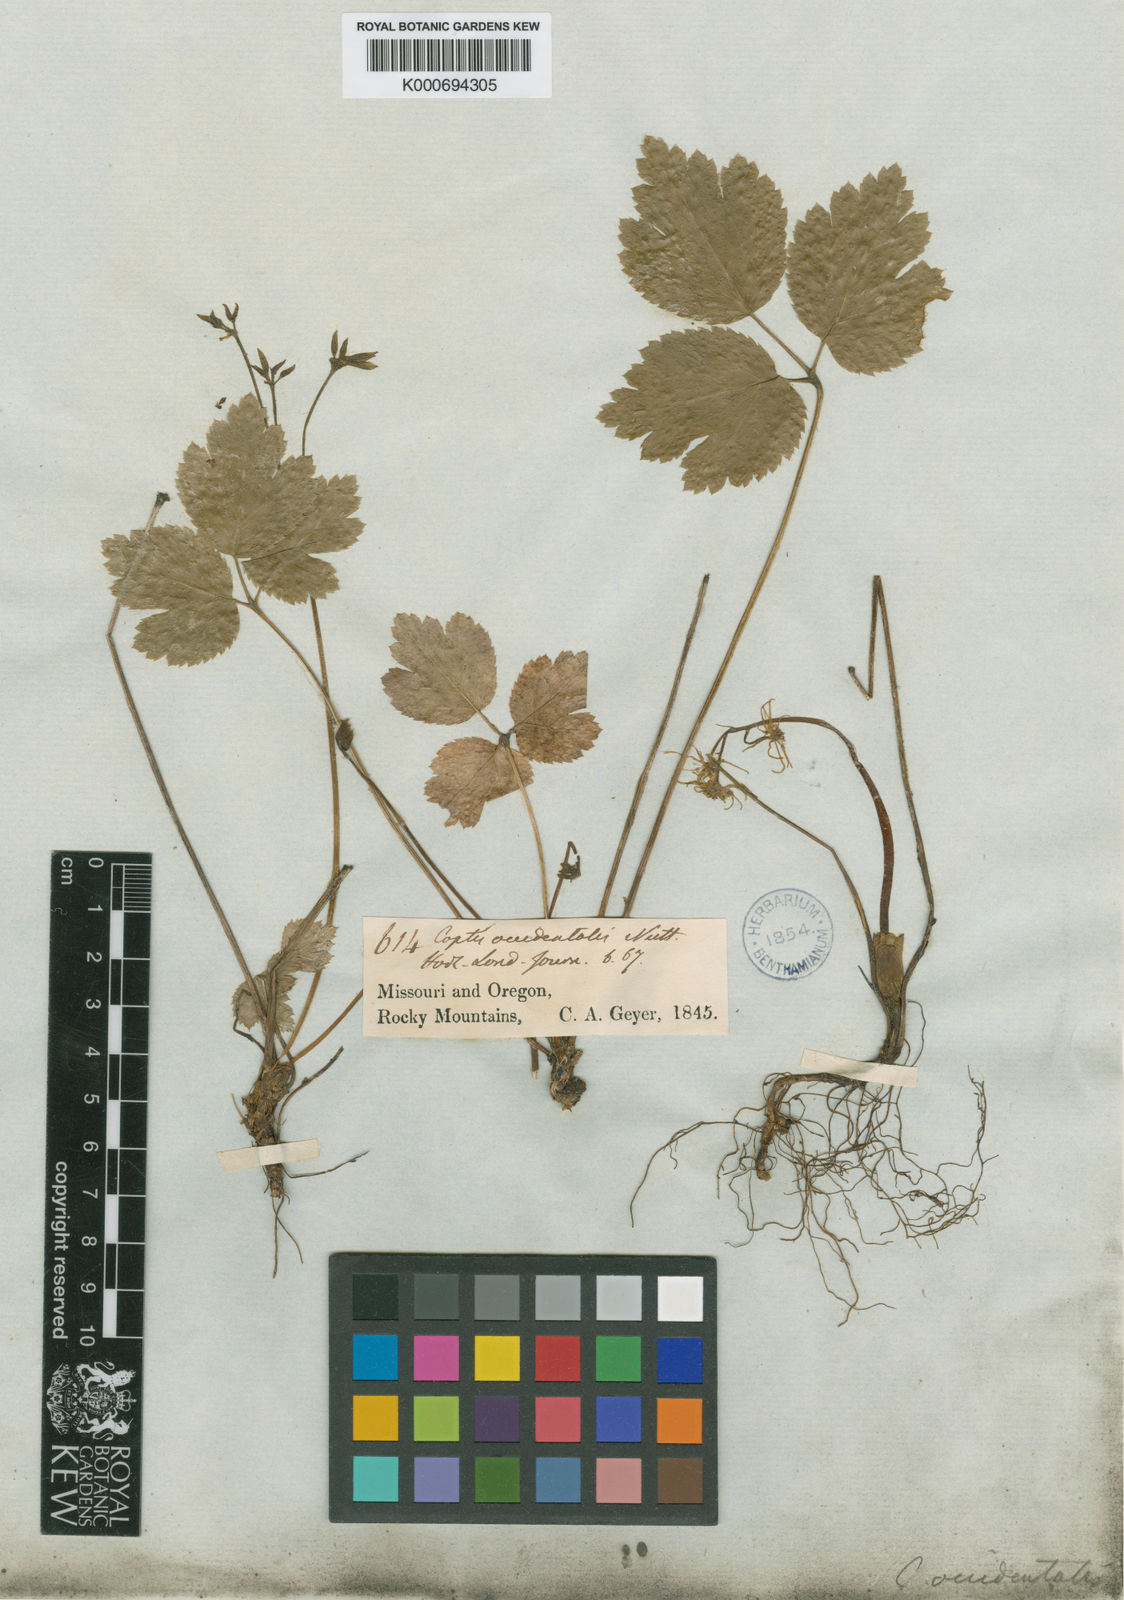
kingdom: Plantae
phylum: Tracheophyta
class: Magnoliopsida
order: Ranunculales
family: Ranunculaceae
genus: Coptis
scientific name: Coptis occidentalis
